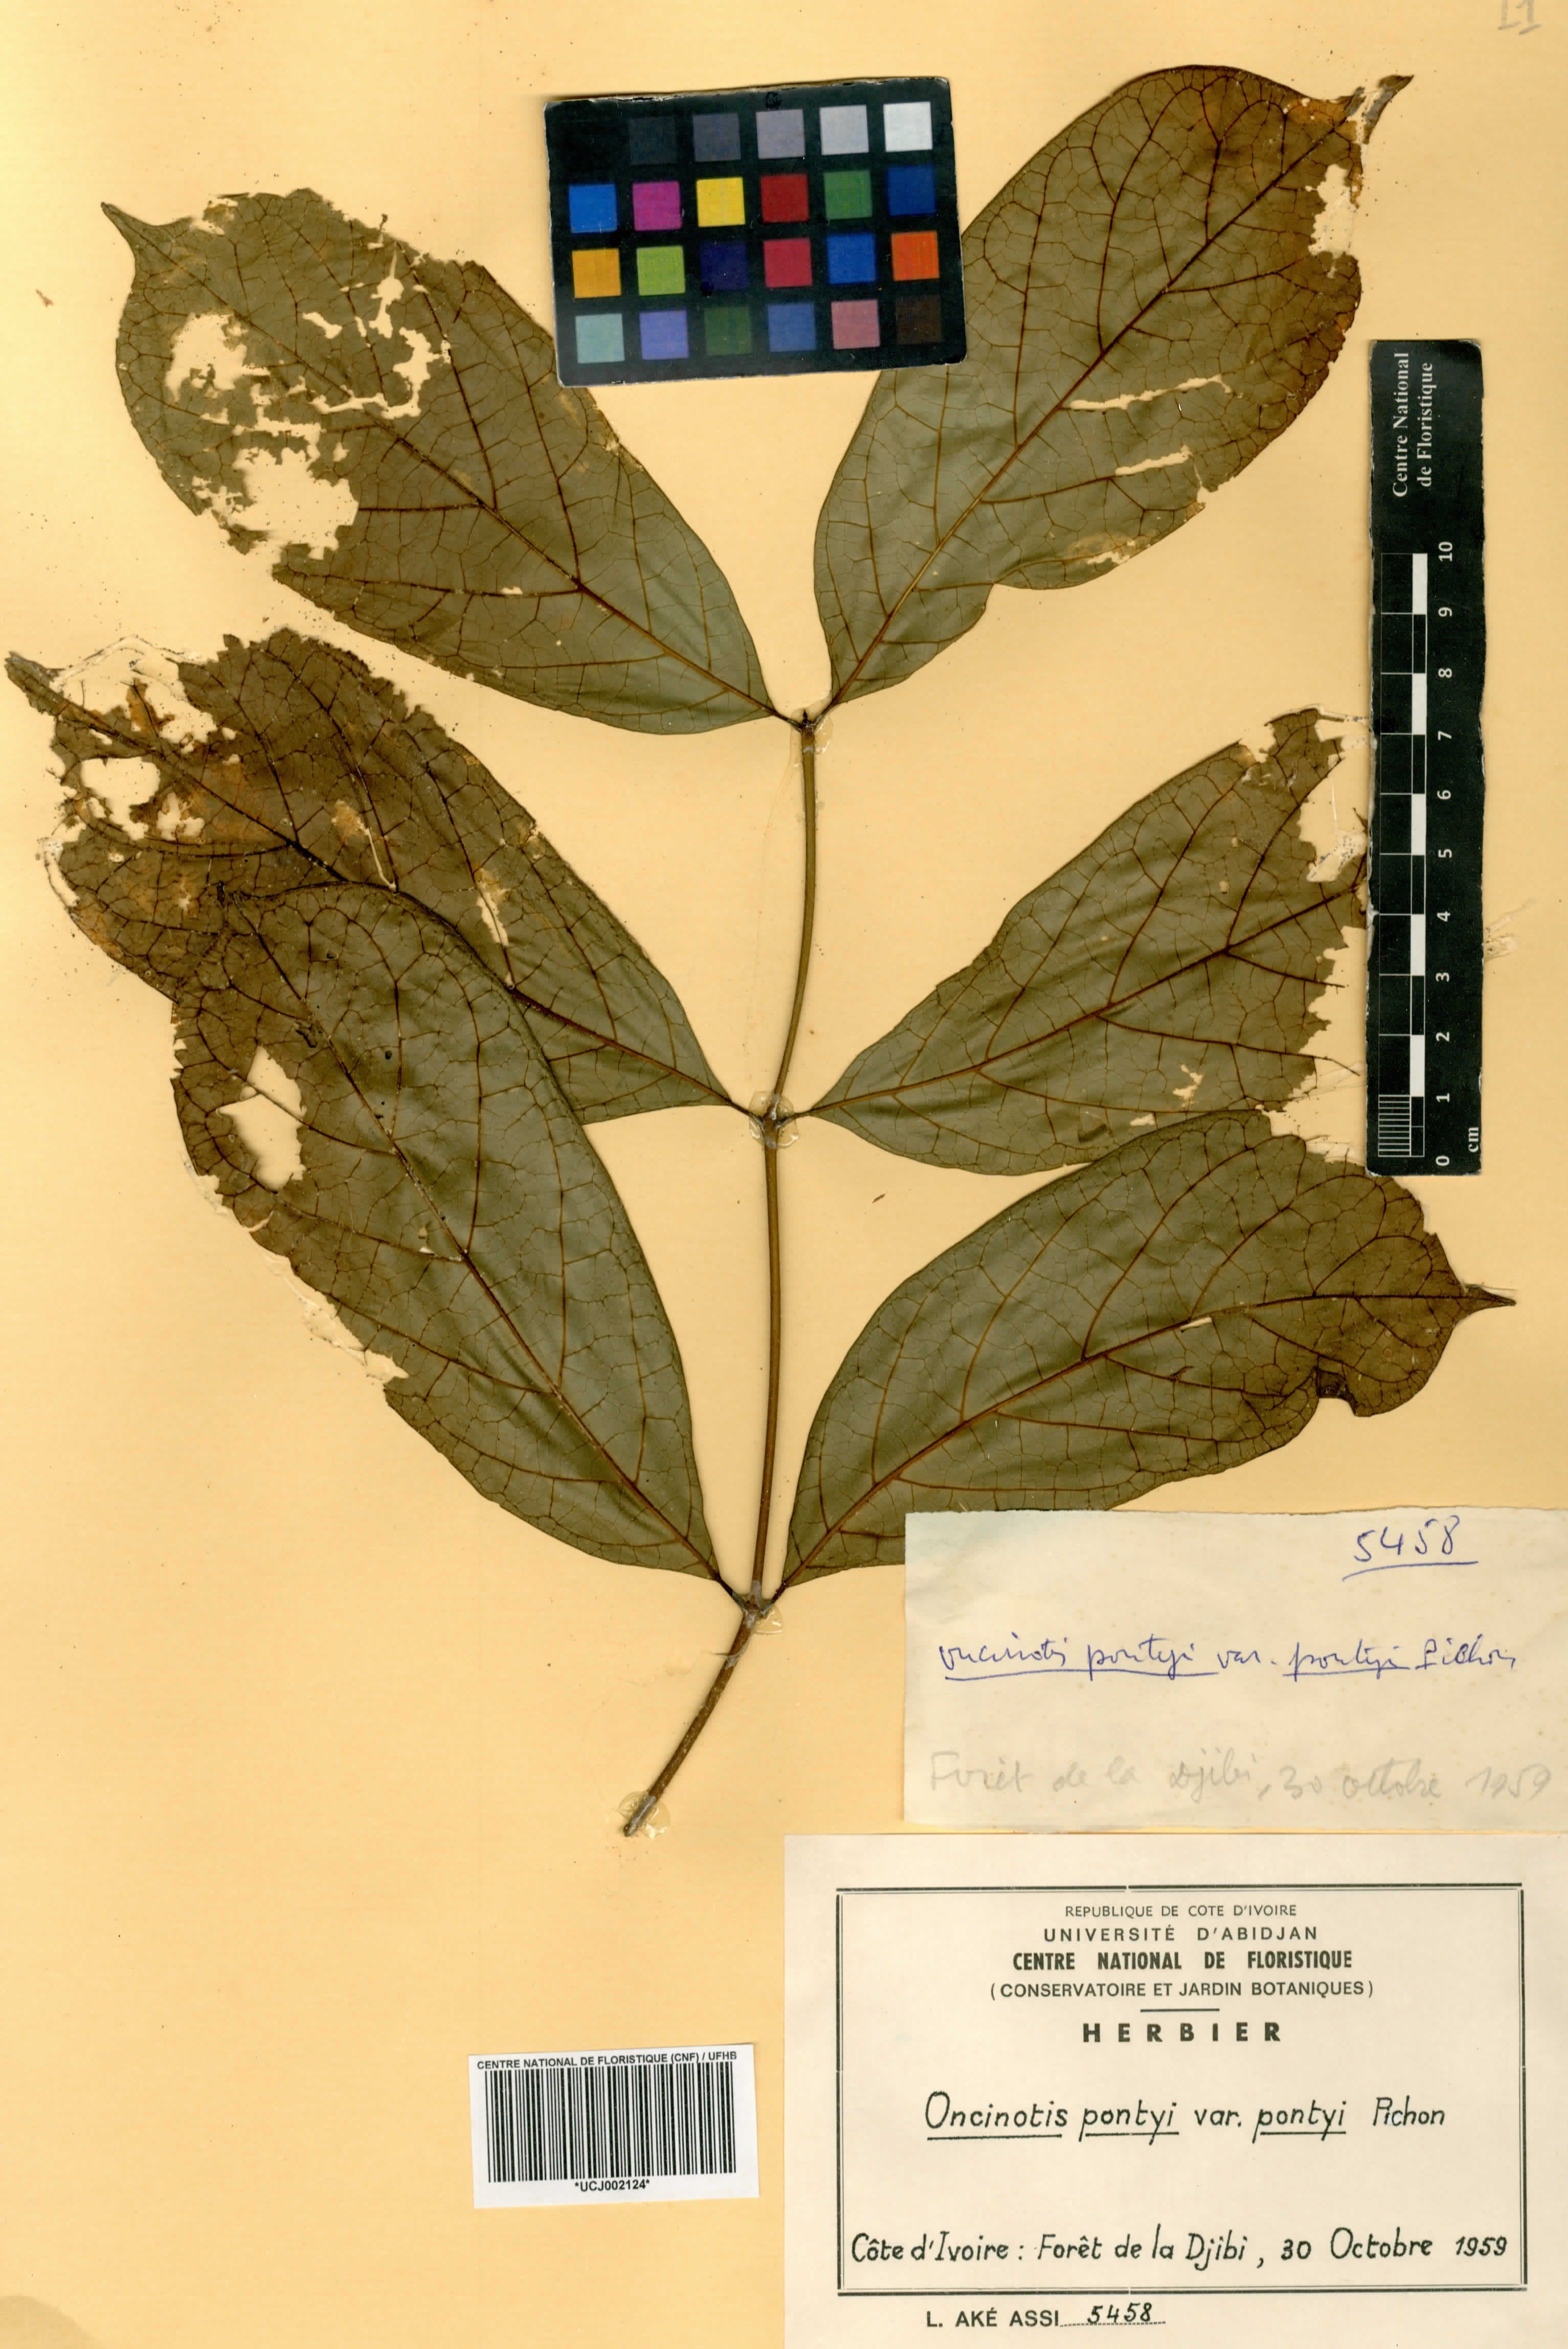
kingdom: Plantae
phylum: Tracheophyta
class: Magnoliopsida
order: Gentianales
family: Apocynaceae
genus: Oncinotis
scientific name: Oncinotis pontyi
